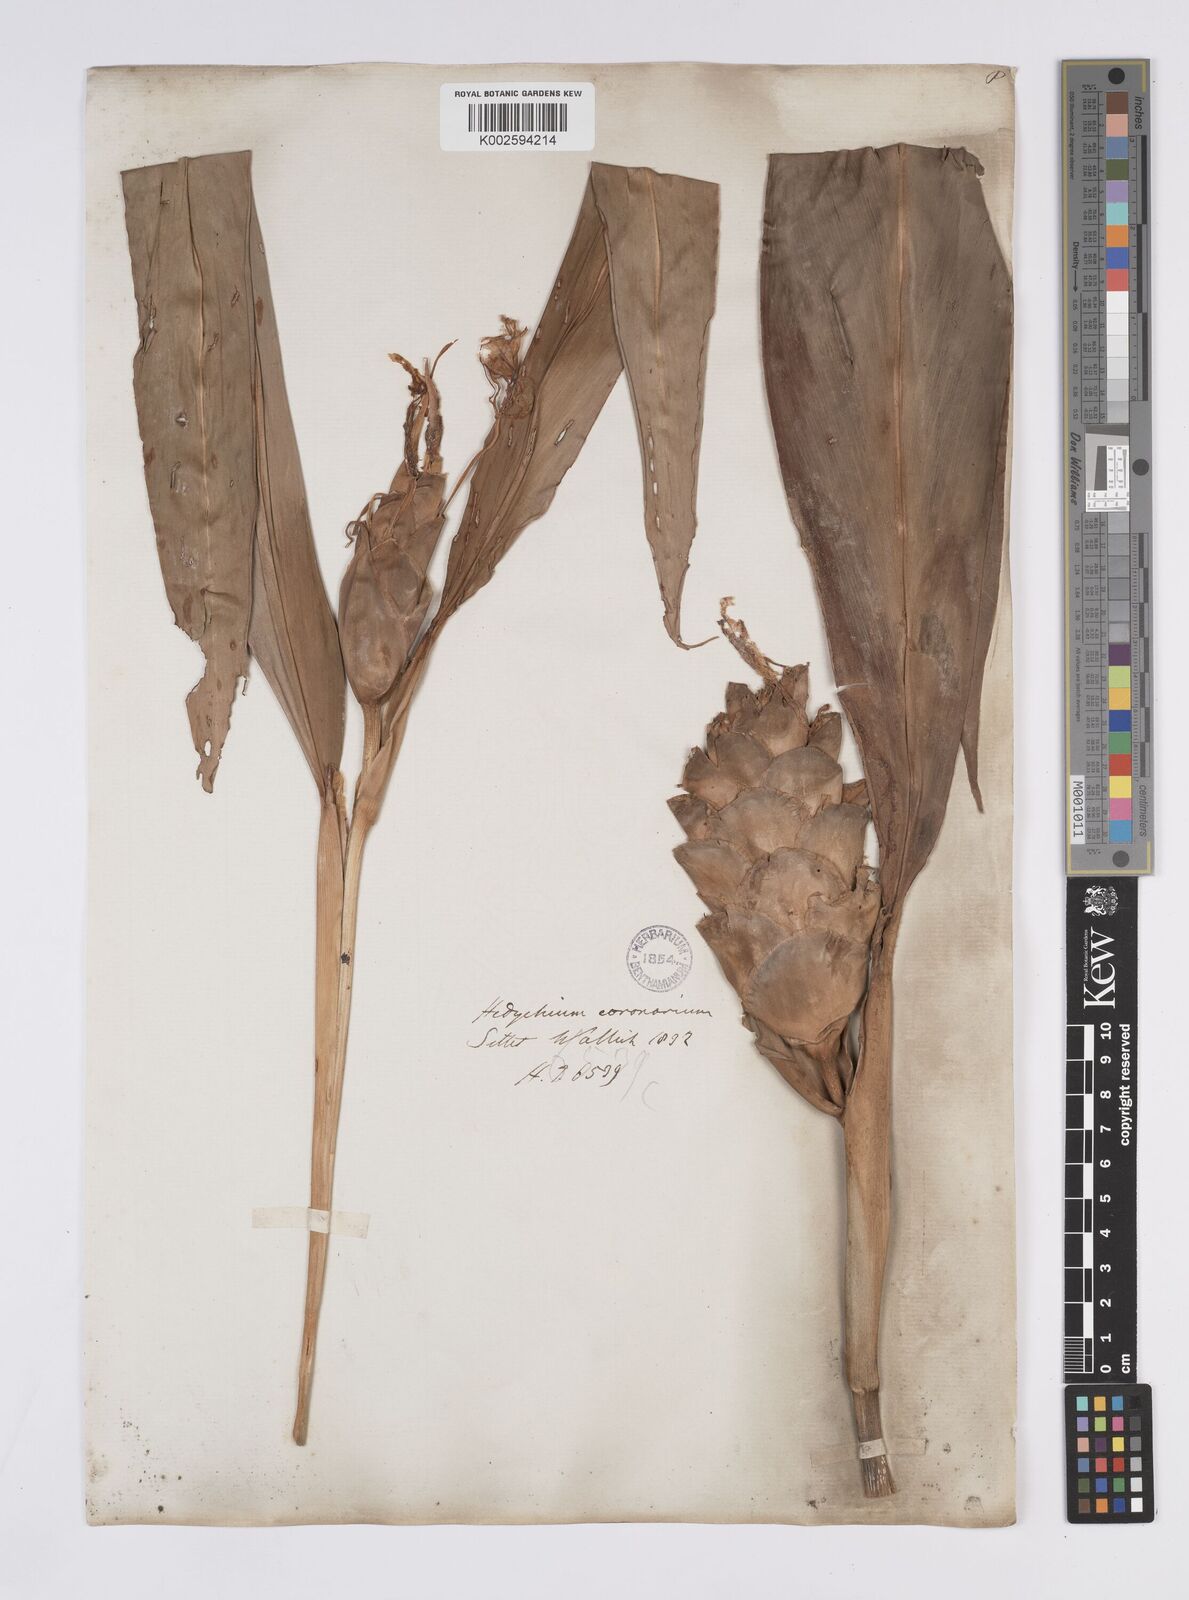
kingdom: Plantae
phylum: Tracheophyta
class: Liliopsida
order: Zingiberales
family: Zingiberaceae
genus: Hedychium
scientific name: Hedychium coronarium
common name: White garland-lily
